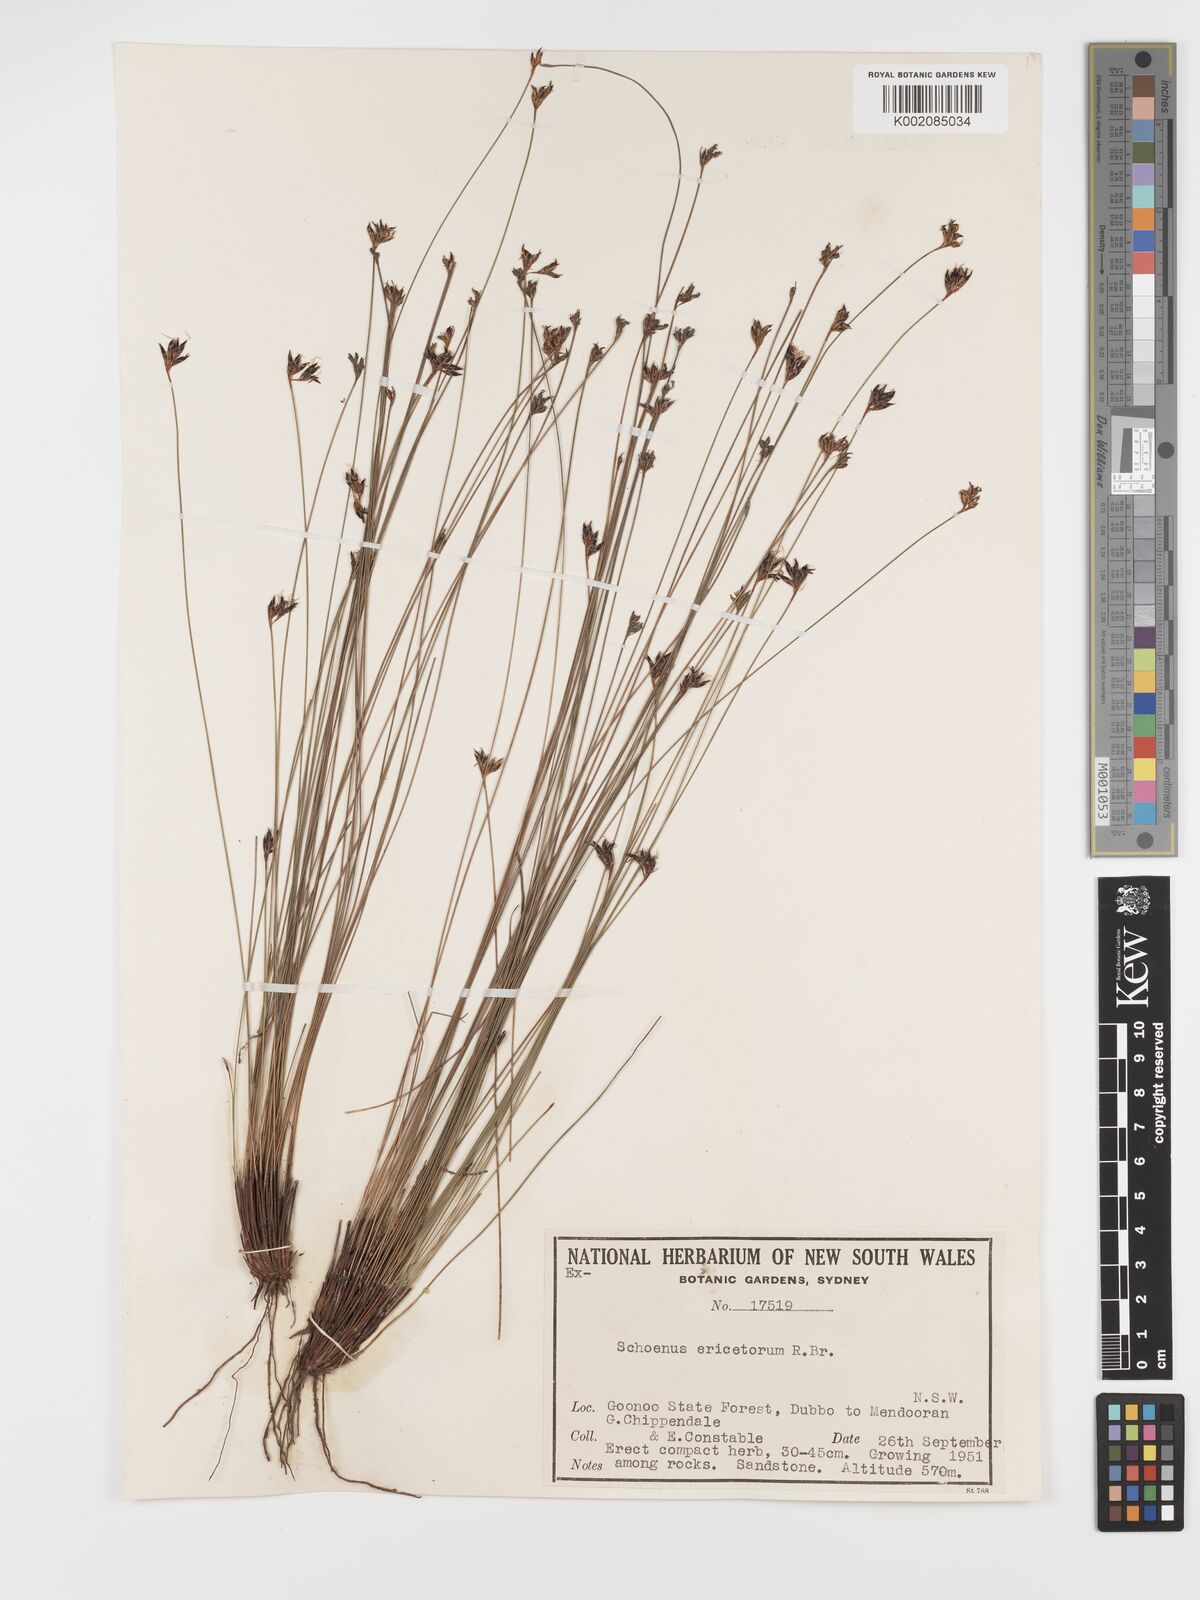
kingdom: Plantae
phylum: Tracheophyta
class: Liliopsida
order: Poales
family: Cyperaceae
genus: Schoenus
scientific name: Schoenus ericetorum
